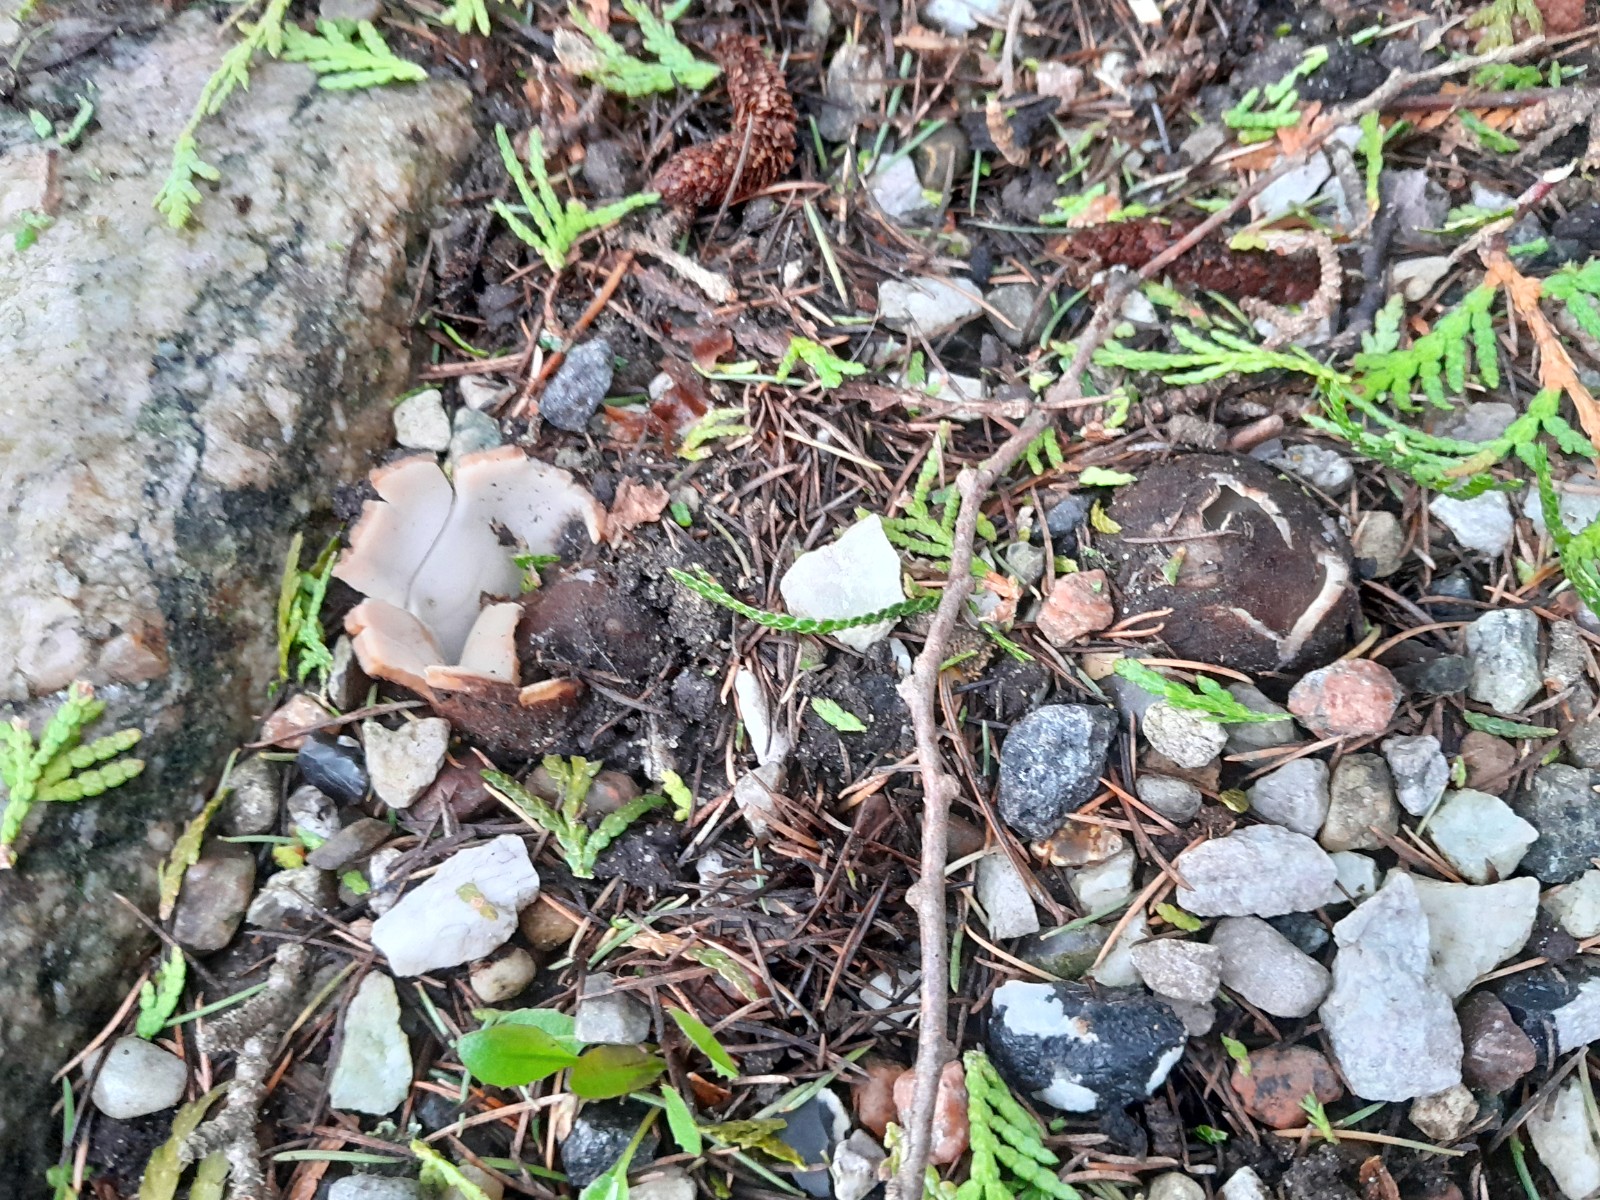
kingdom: Fungi
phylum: Ascomycota
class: Pezizomycetes
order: Pezizales
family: Pyronemataceae
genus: Geopora
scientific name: Geopora sumneriana
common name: vår-jordbæger
